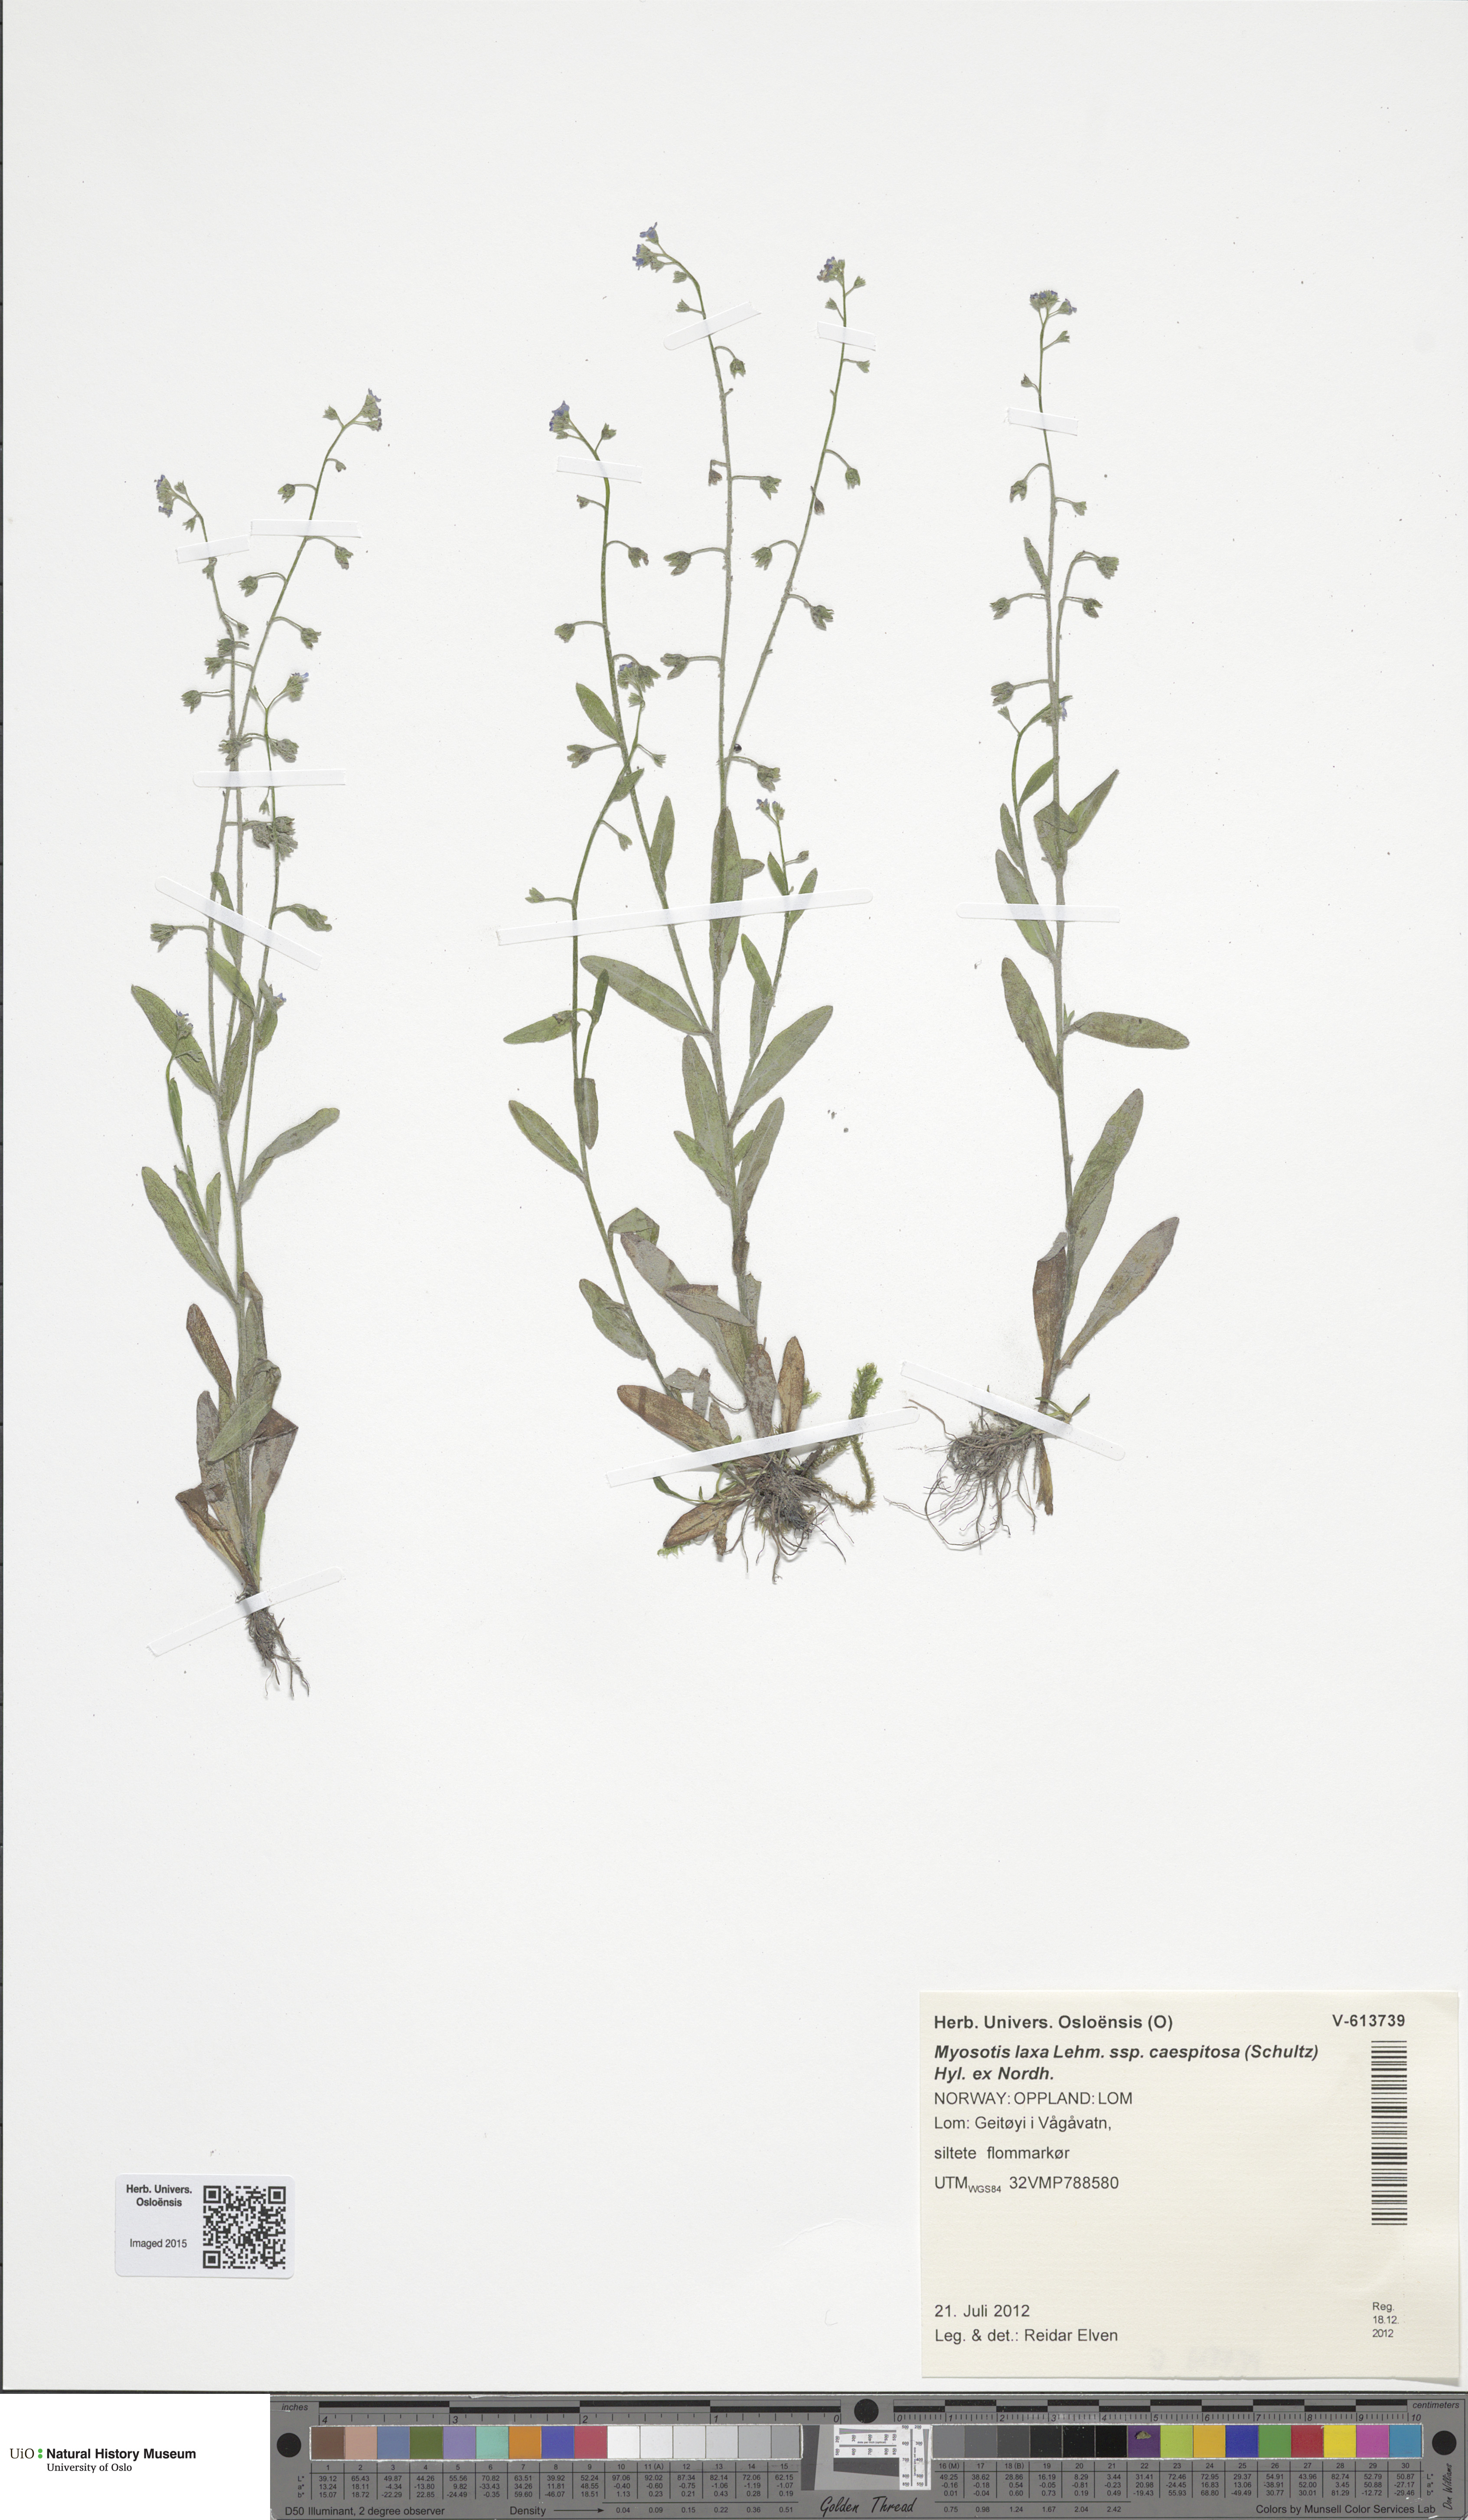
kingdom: Plantae
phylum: Tracheophyta
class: Magnoliopsida
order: Boraginales
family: Boraginaceae
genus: Myosotis
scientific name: Myosotis laxa
